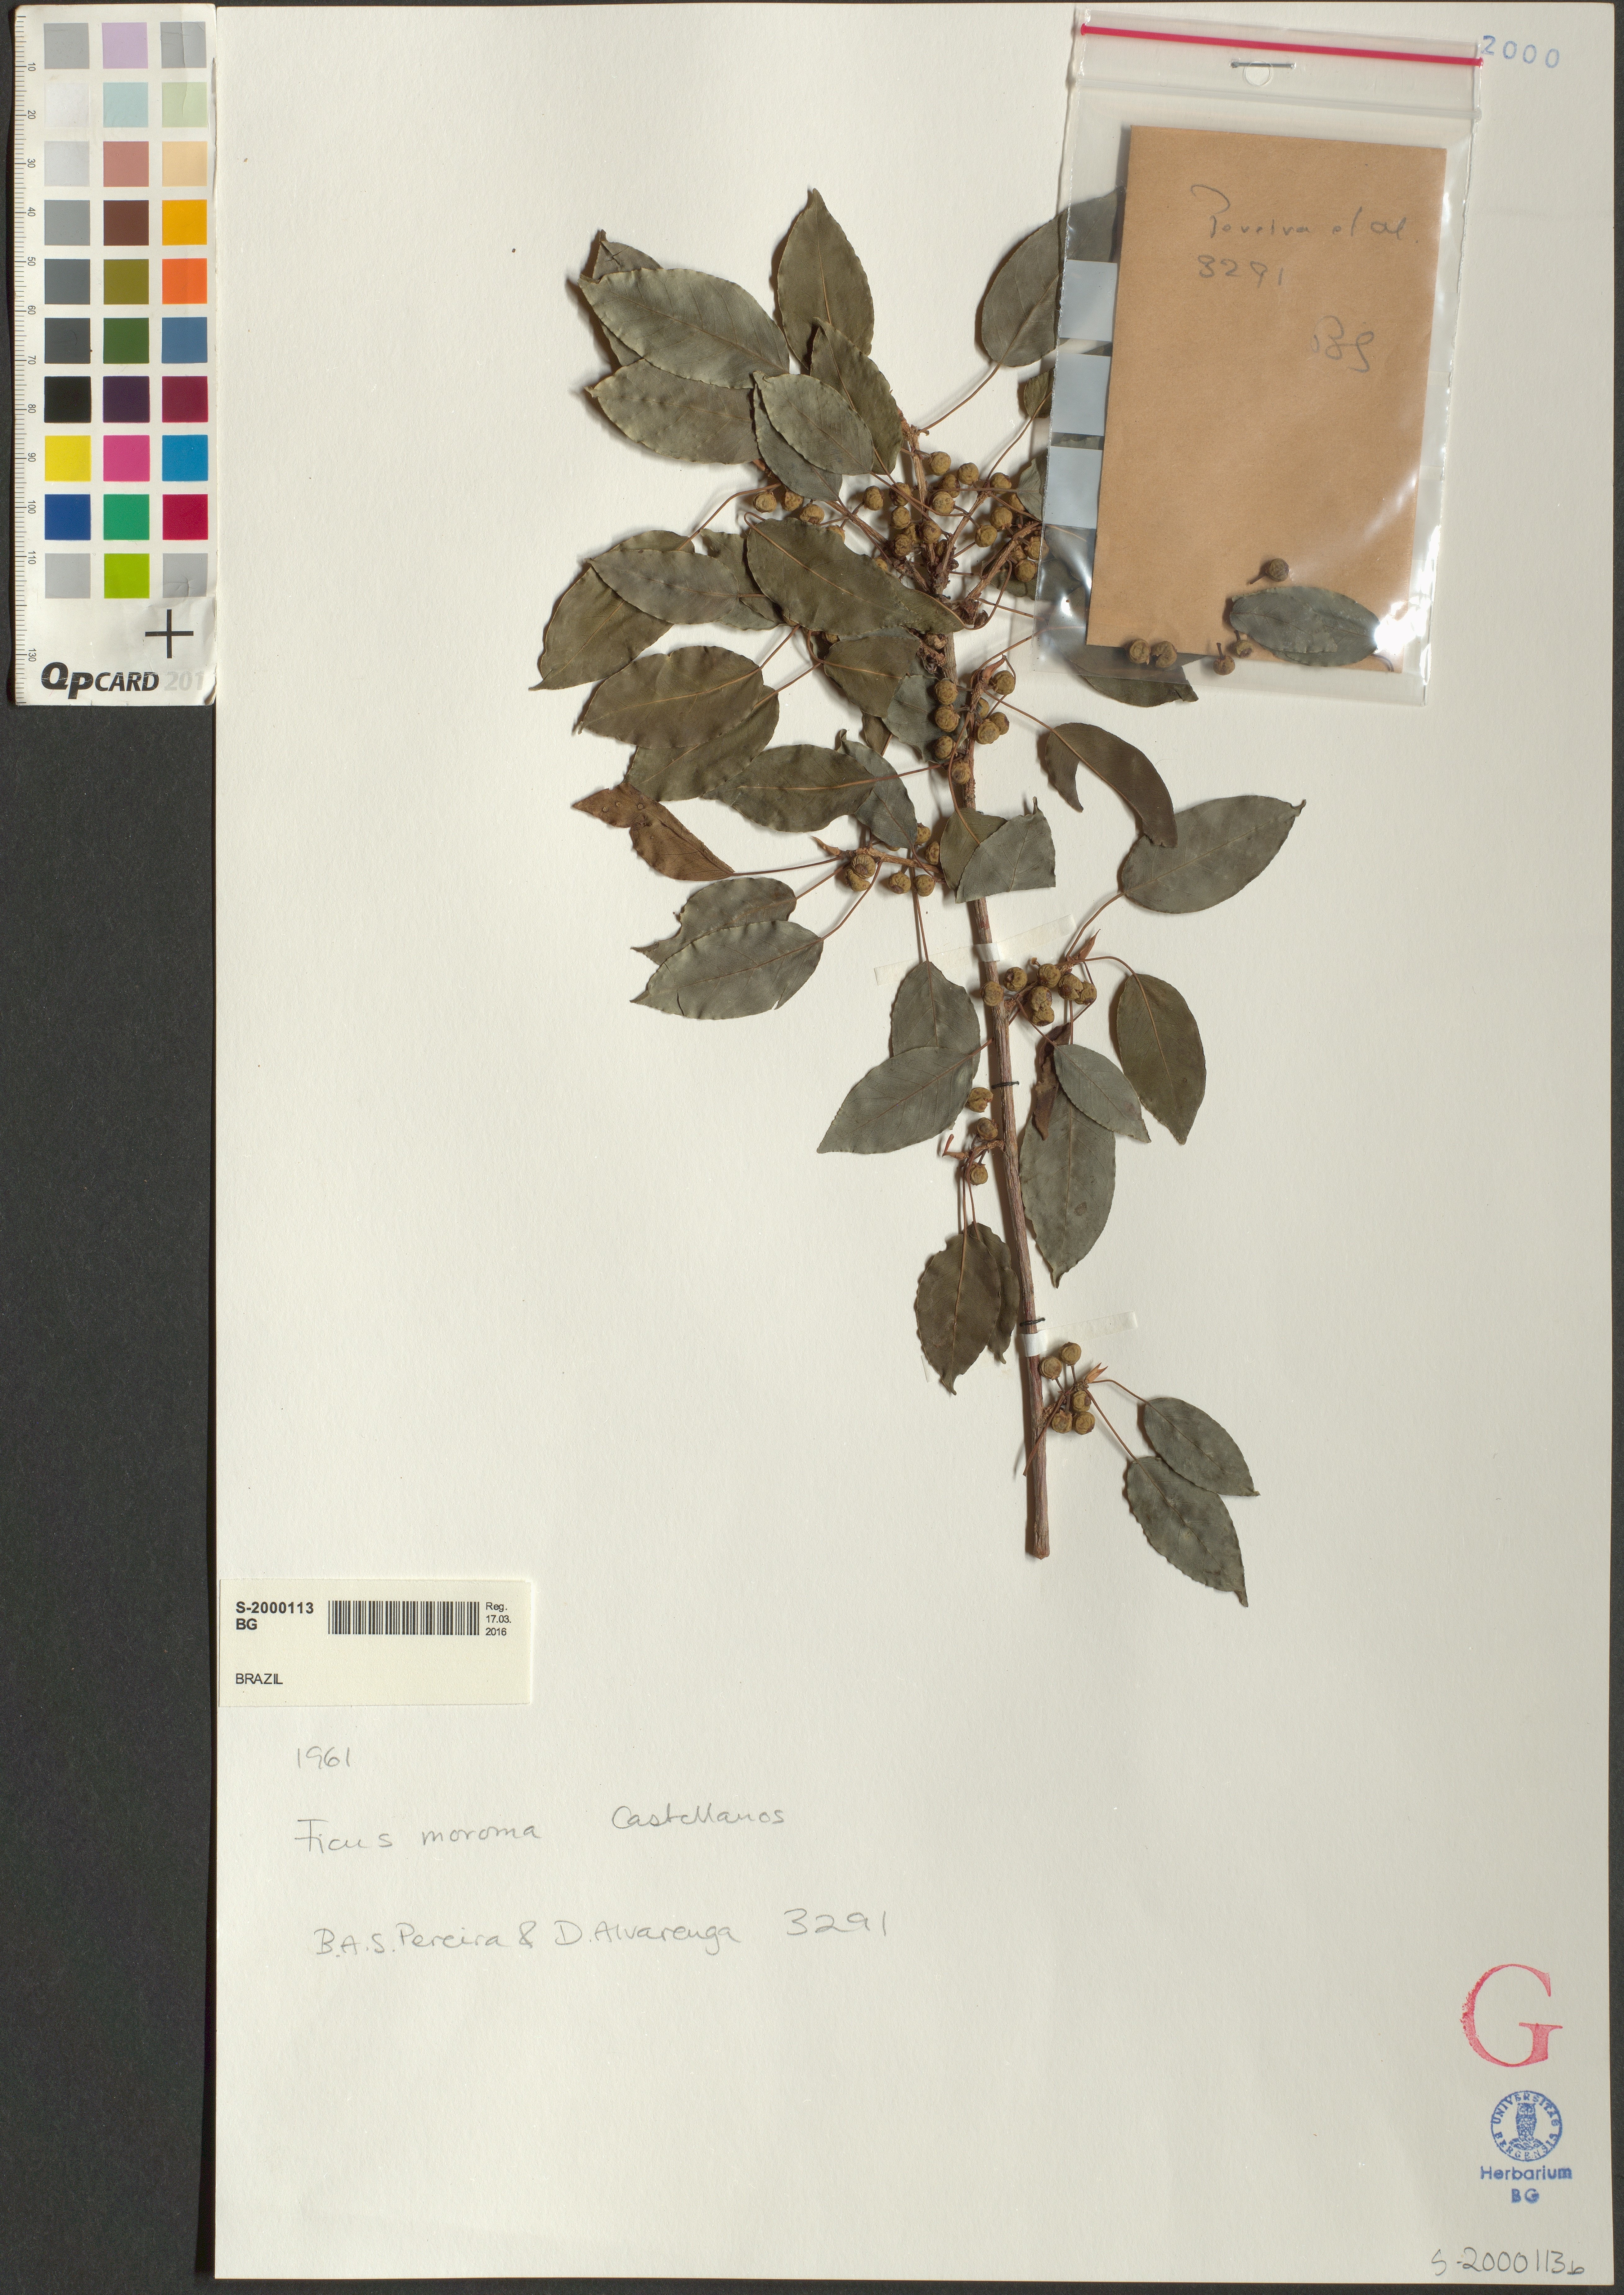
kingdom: Plantae
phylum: Tracheophyta
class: Magnoliopsida
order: Rosales
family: Moraceae
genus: Ficus
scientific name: Ficus goiana
